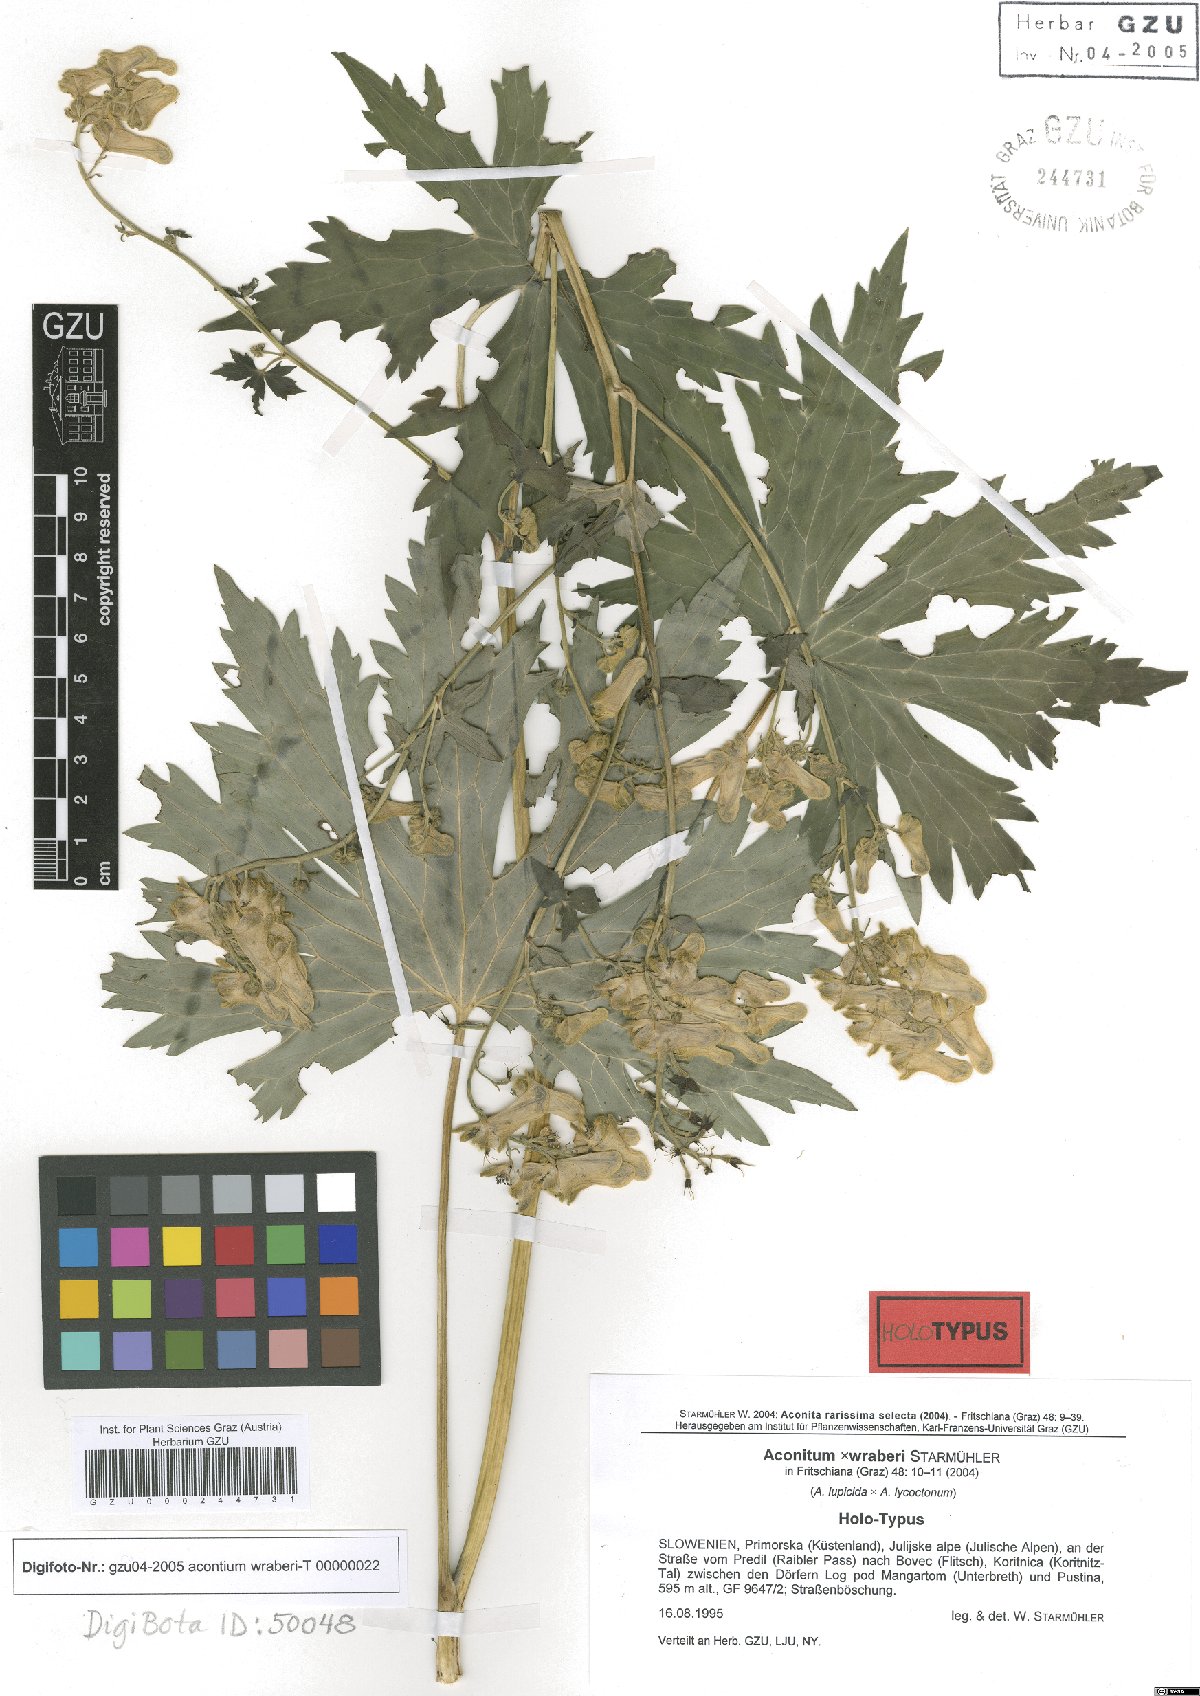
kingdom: Plantae
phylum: Tracheophyta
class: Magnoliopsida
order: Ranunculales
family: Ranunculaceae
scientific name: Ranunculaceae
